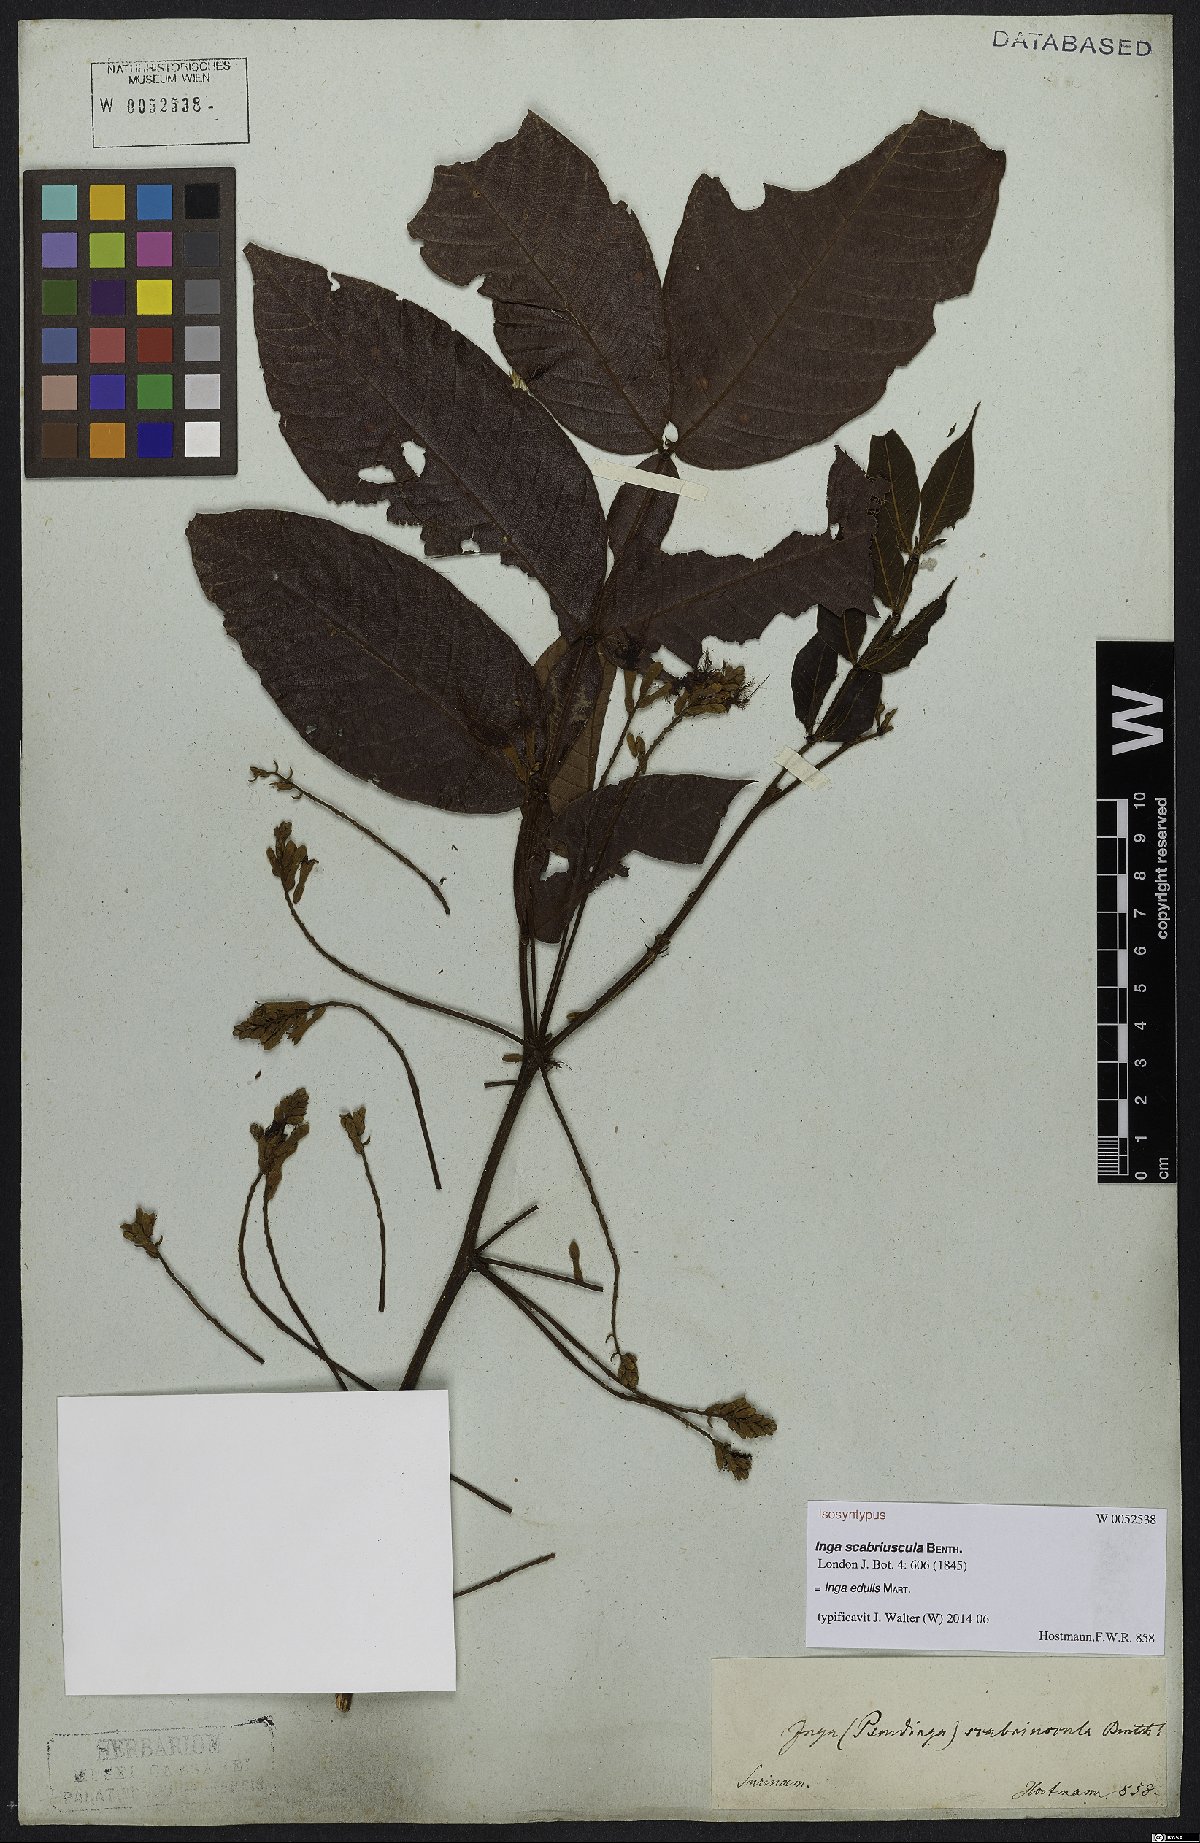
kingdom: Plantae
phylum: Tracheophyta
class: Magnoliopsida
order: Fabales
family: Fabaceae
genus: Inga
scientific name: Inga edulis
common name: Ice cream bean
